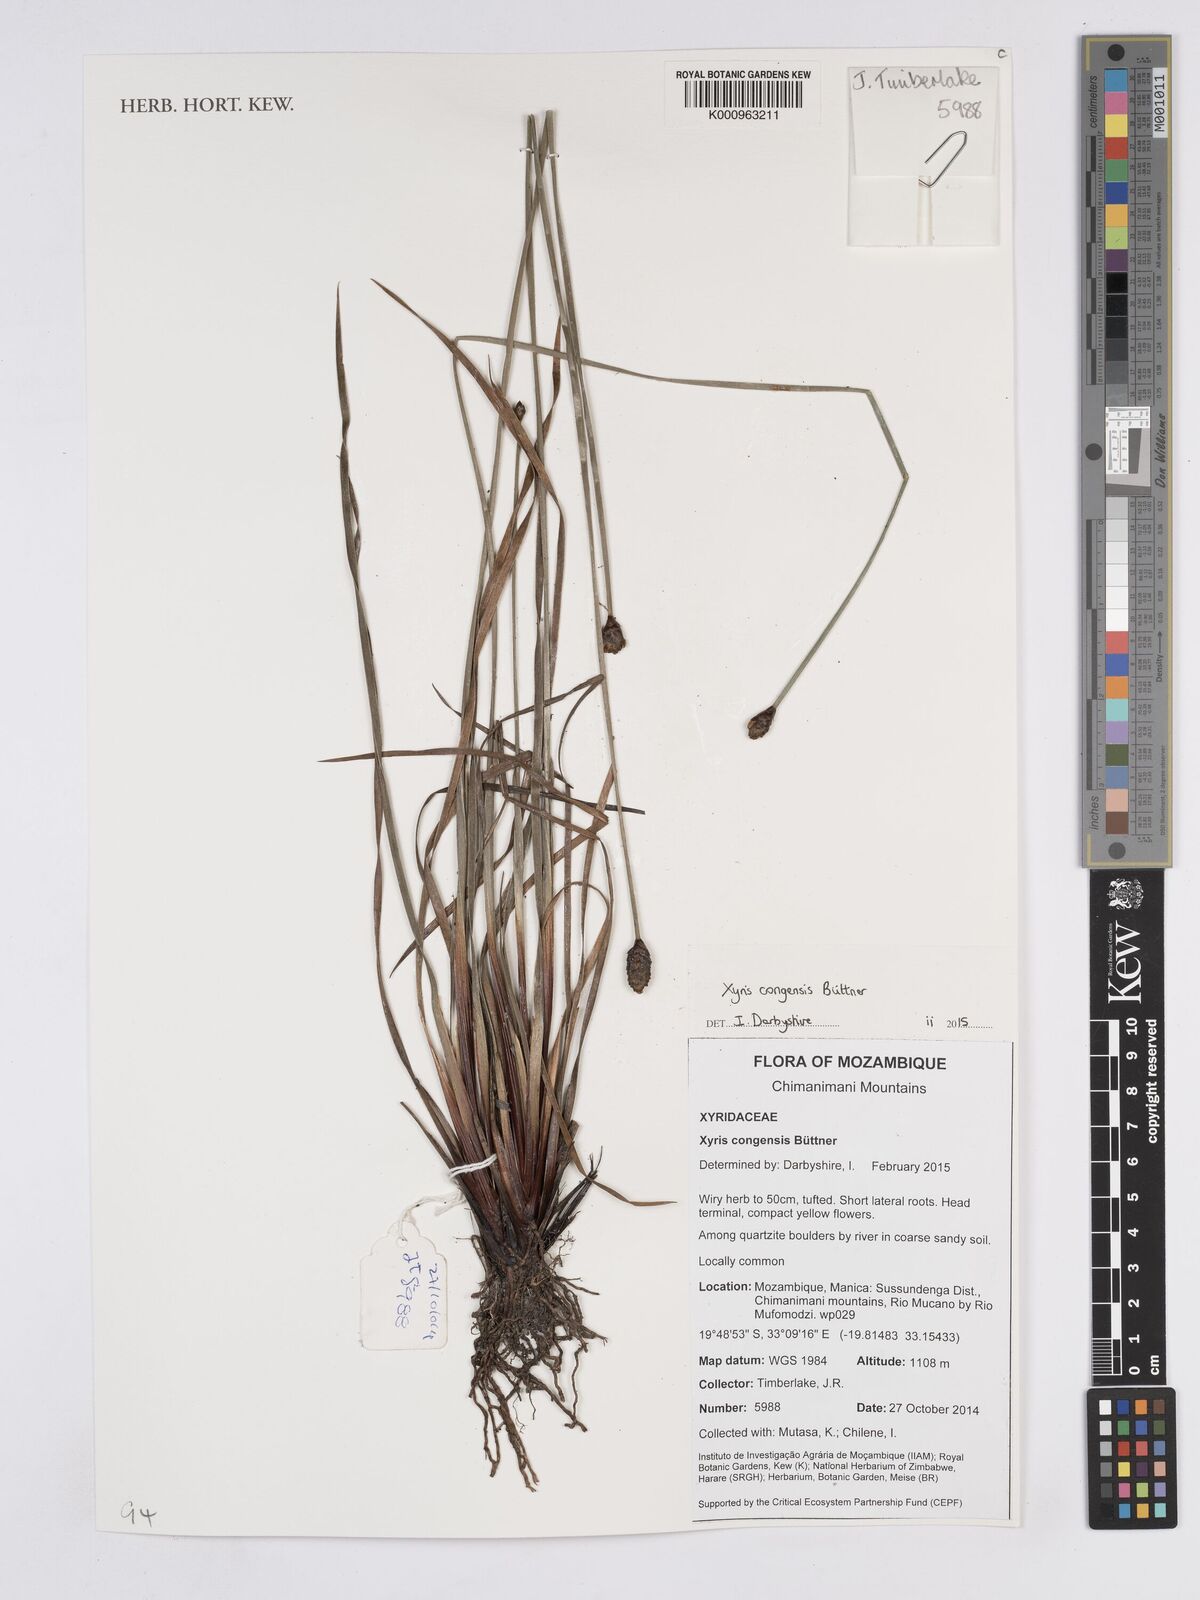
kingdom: Plantae
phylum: Tracheophyta
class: Liliopsida
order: Poales
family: Xyridaceae
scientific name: Xyridaceae
